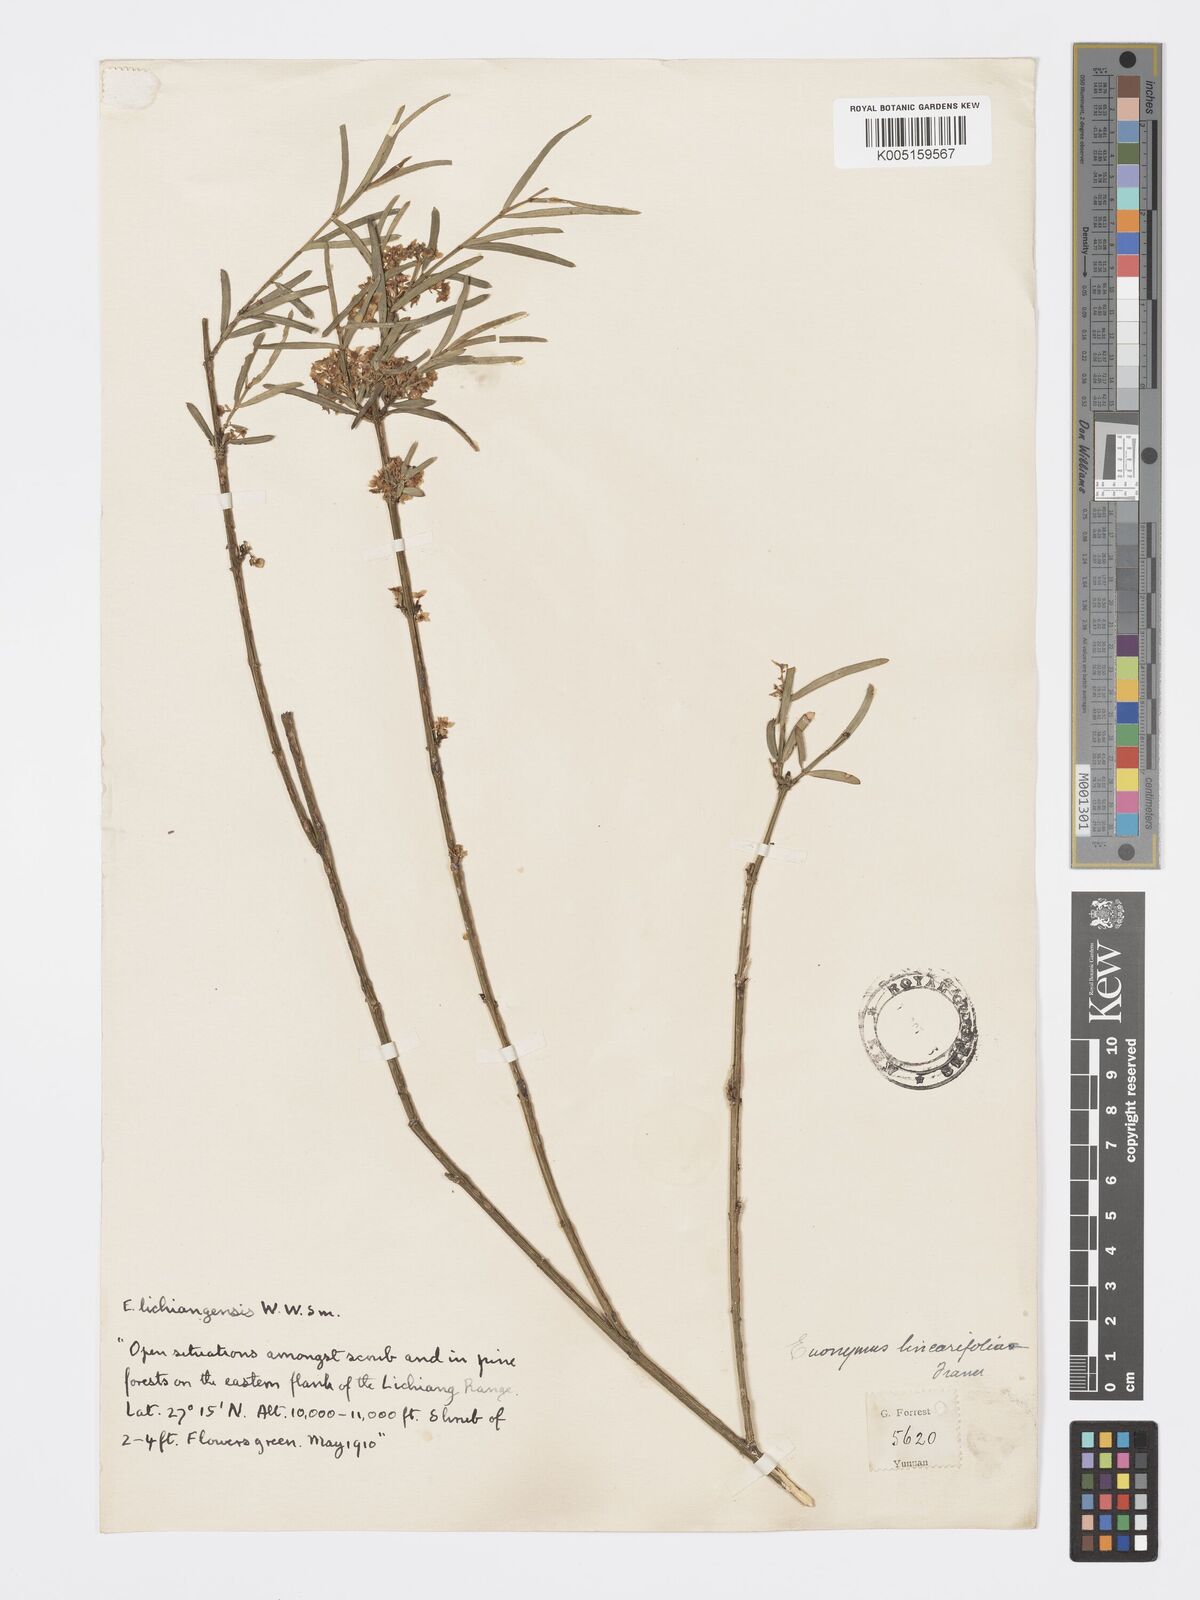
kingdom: Plantae
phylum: Tracheophyta
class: Magnoliopsida
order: Celastrales
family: Celastraceae
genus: Euonymus
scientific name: Euonymus lichiangensis
